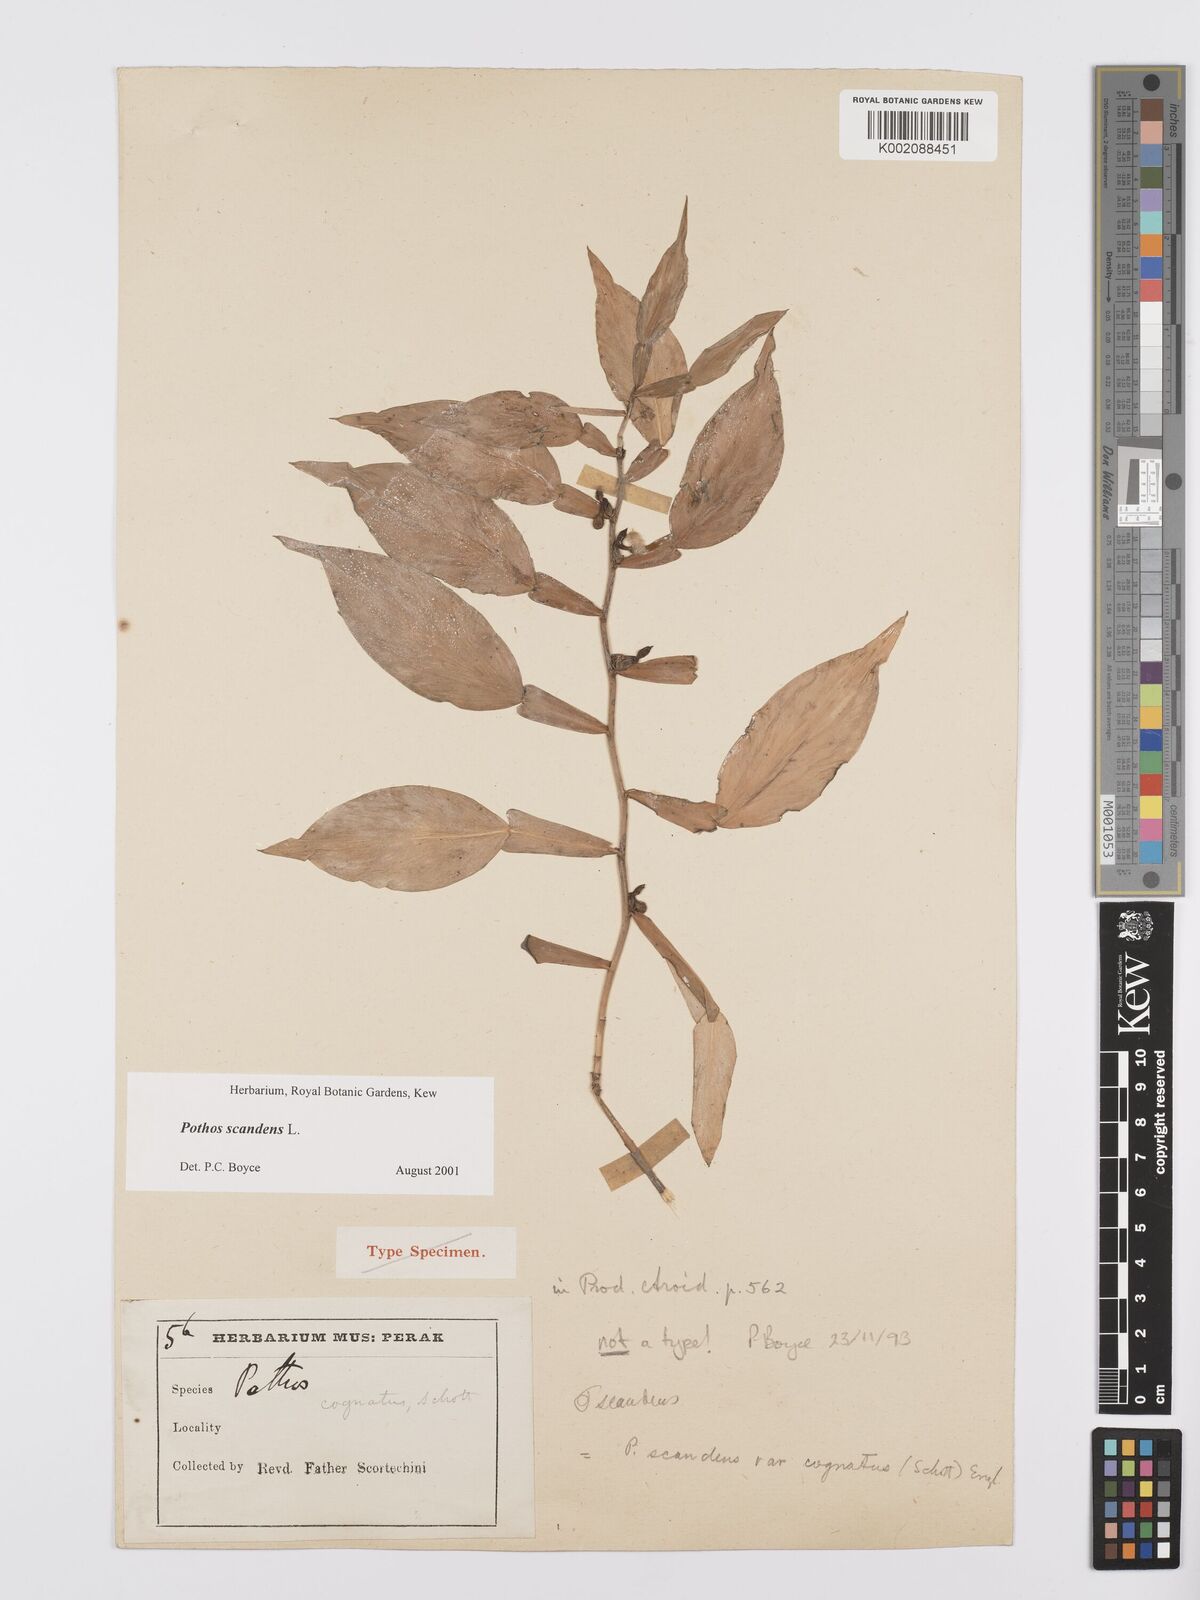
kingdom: Plantae
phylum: Tracheophyta
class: Liliopsida
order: Alismatales
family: Araceae
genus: Pothos
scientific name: Pothos scandens
